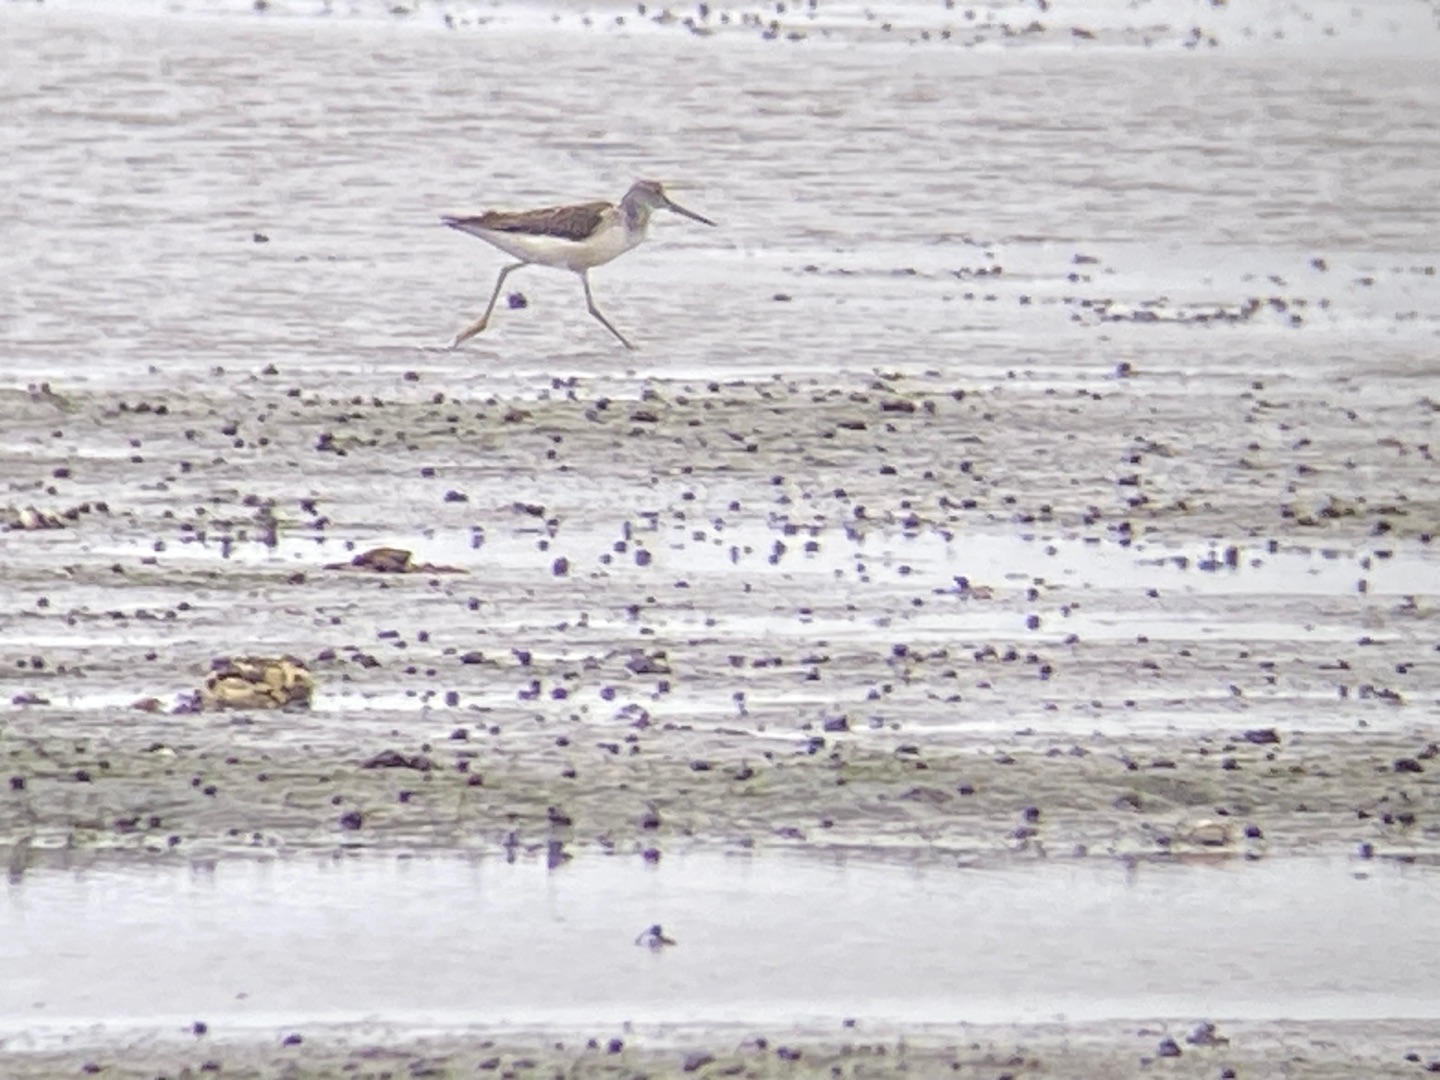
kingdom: Animalia
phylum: Chordata
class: Aves
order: Charadriiformes
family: Scolopacidae
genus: Tringa
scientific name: Tringa nebularia
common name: Hvidklire
